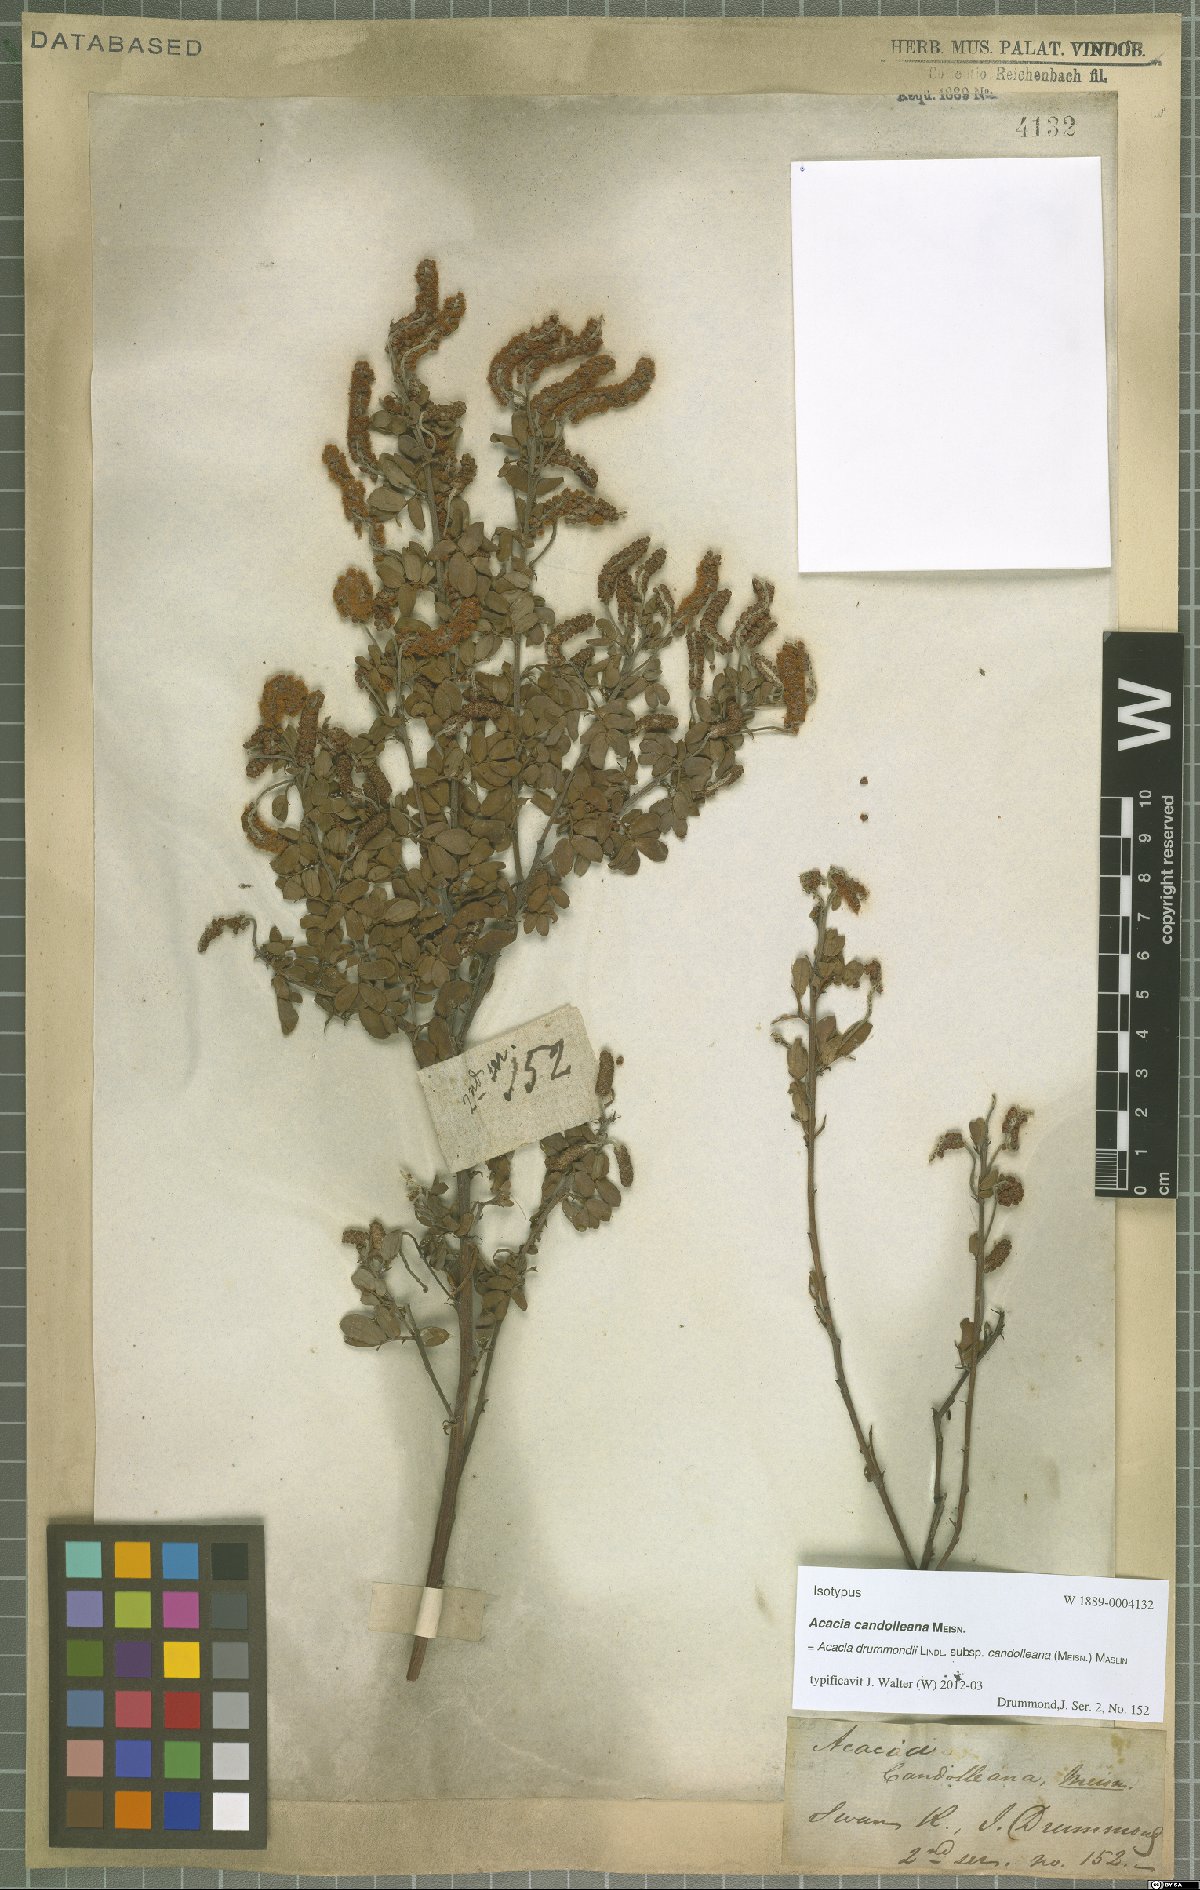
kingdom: Plantae
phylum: Tracheophyta
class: Magnoliopsida
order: Fabales
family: Fabaceae
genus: Acacia
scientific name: Acacia drummondii
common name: Drummond's wattle
